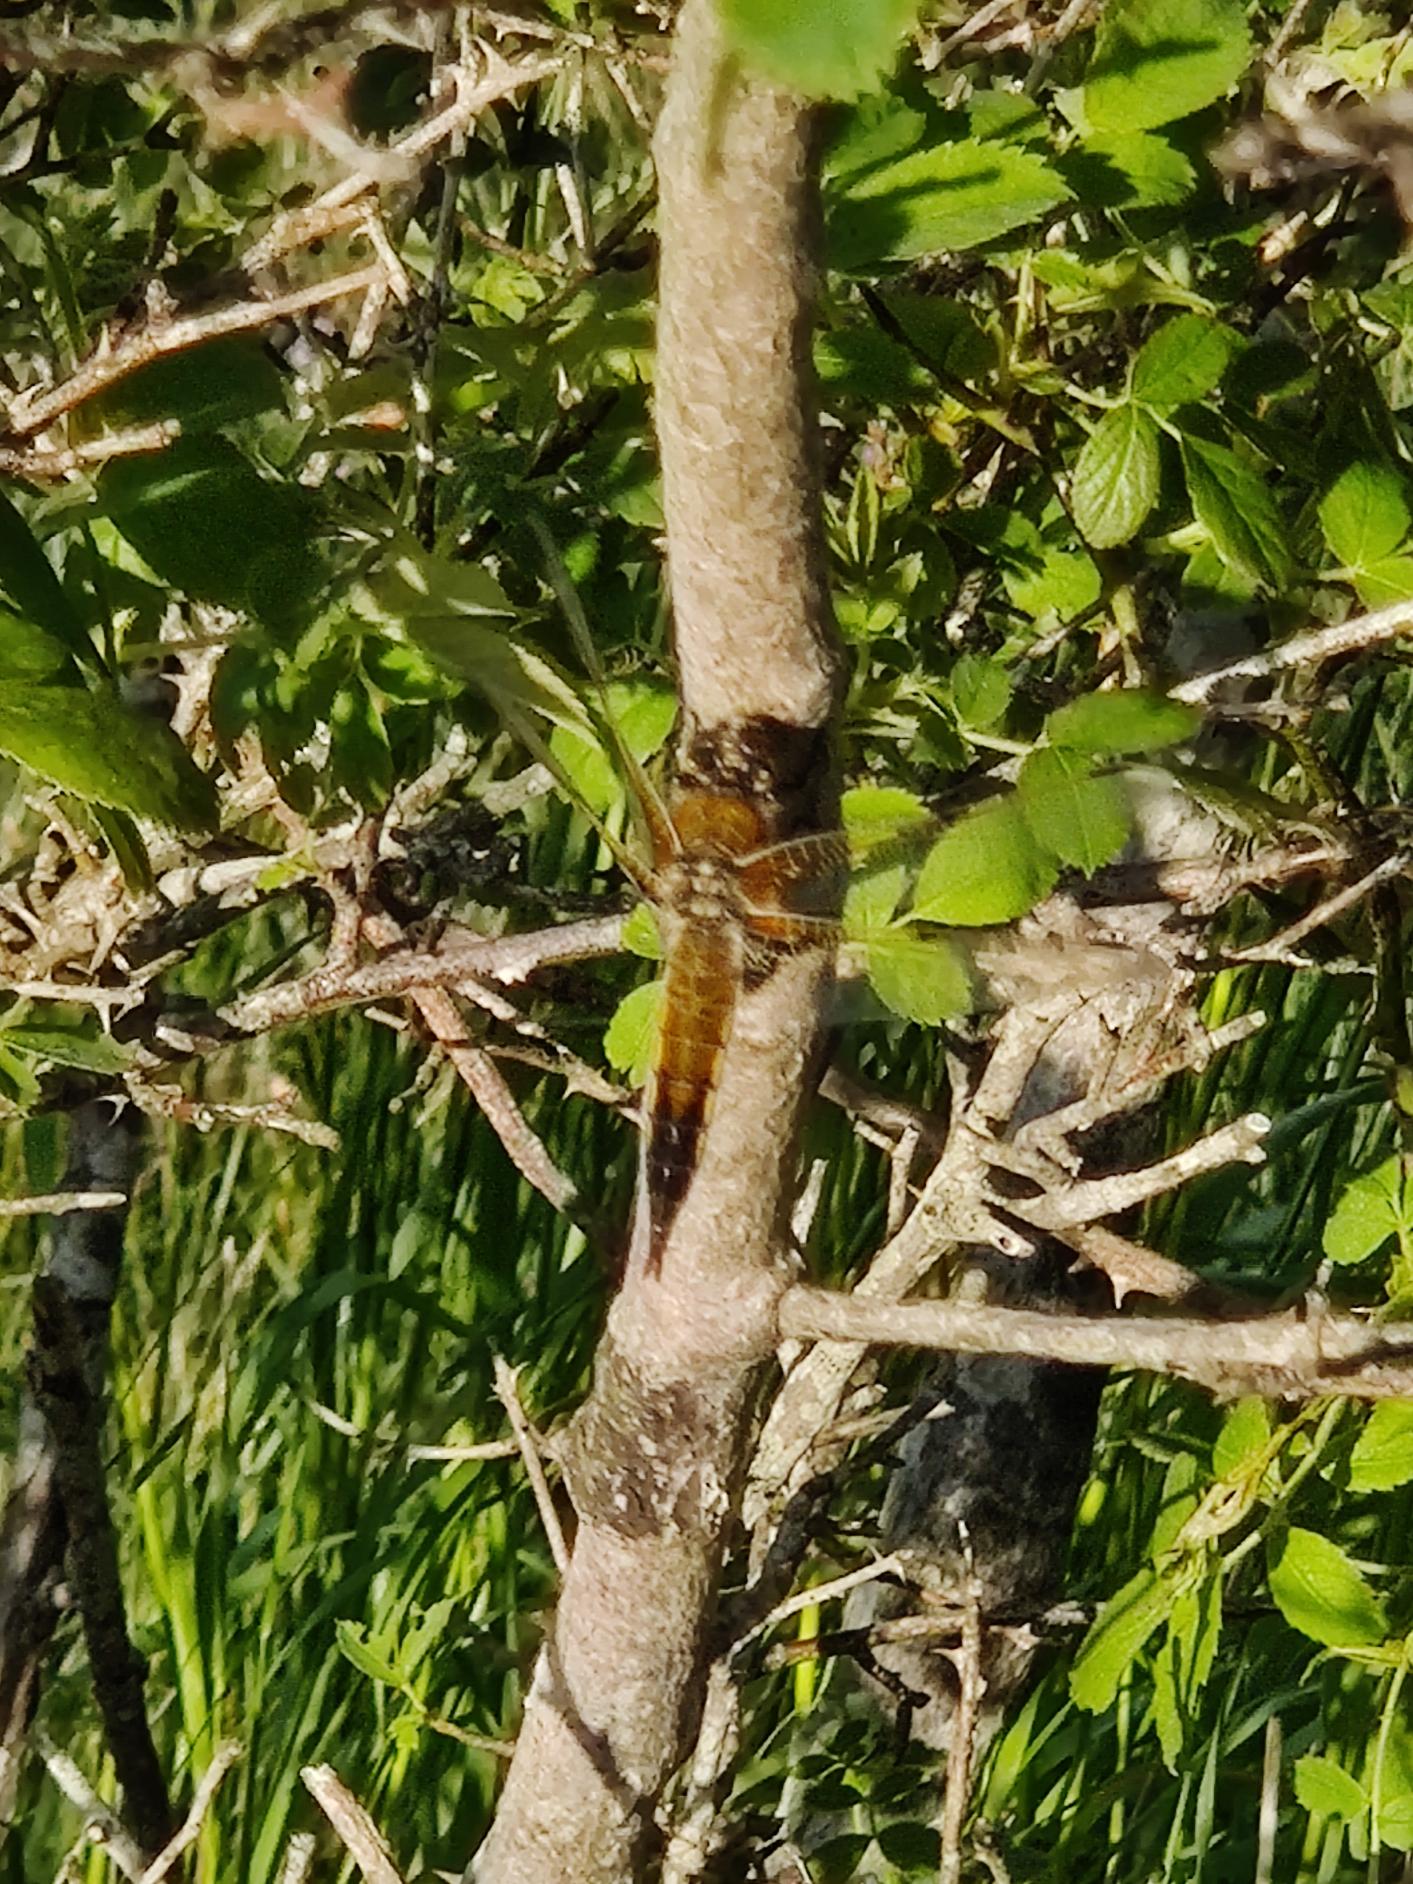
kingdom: Animalia
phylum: Arthropoda
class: Insecta
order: Odonata
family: Libellulidae
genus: Libellula
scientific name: Libellula quadrimaculata
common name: Fireplettet libel
